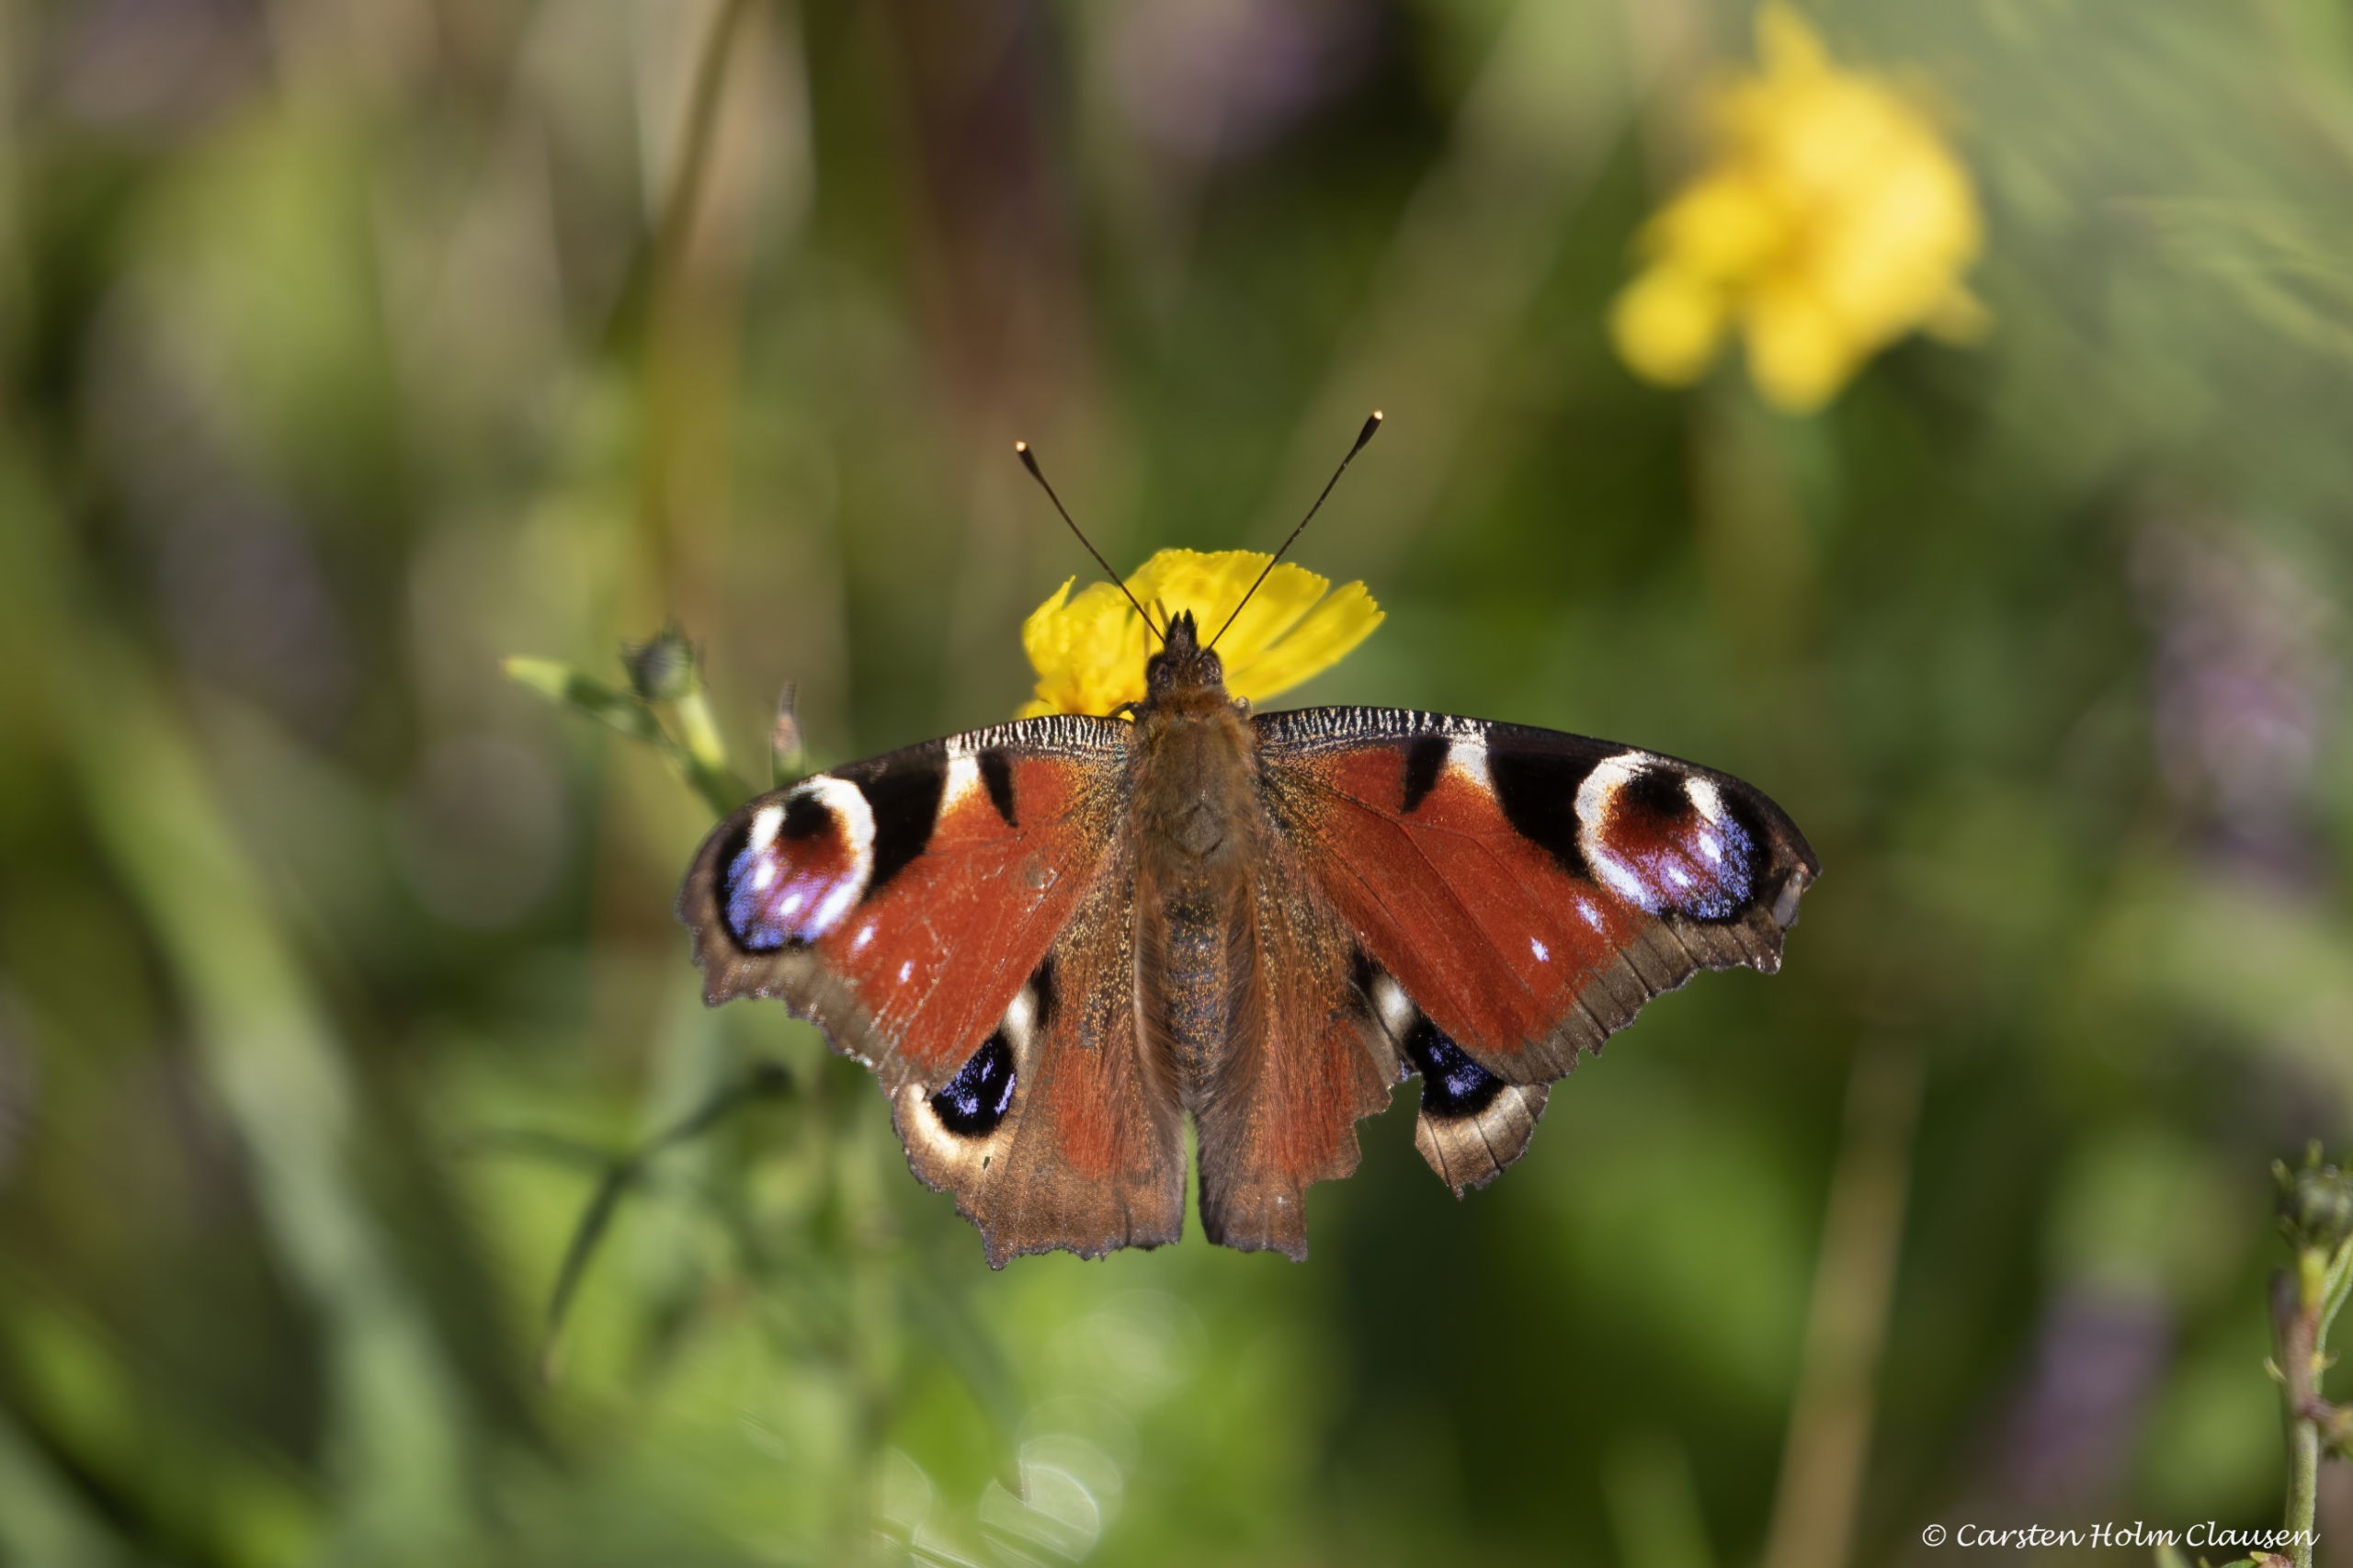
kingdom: Animalia
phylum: Arthropoda
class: Insecta
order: Lepidoptera
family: Nymphalidae
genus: Aglais
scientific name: Aglais io
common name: Dagpåfugleøje
